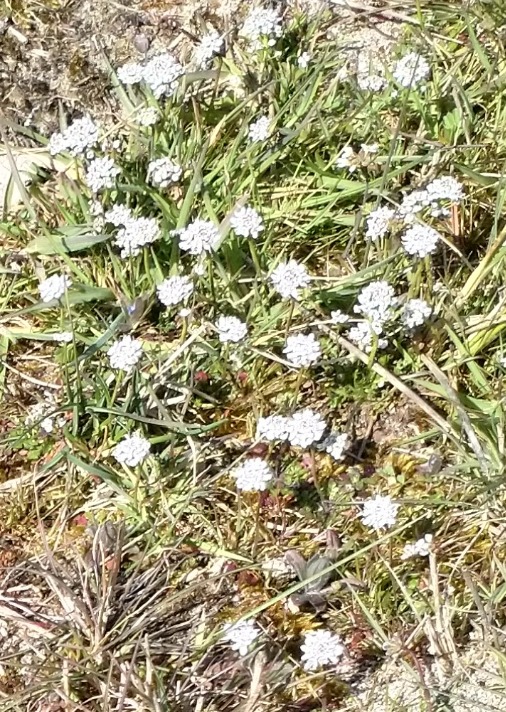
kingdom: Plantae
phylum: Tracheophyta
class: Magnoliopsida
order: Brassicales
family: Brassicaceae
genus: Teesdalia
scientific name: Teesdalia nudicaulis
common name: Flipkrave
